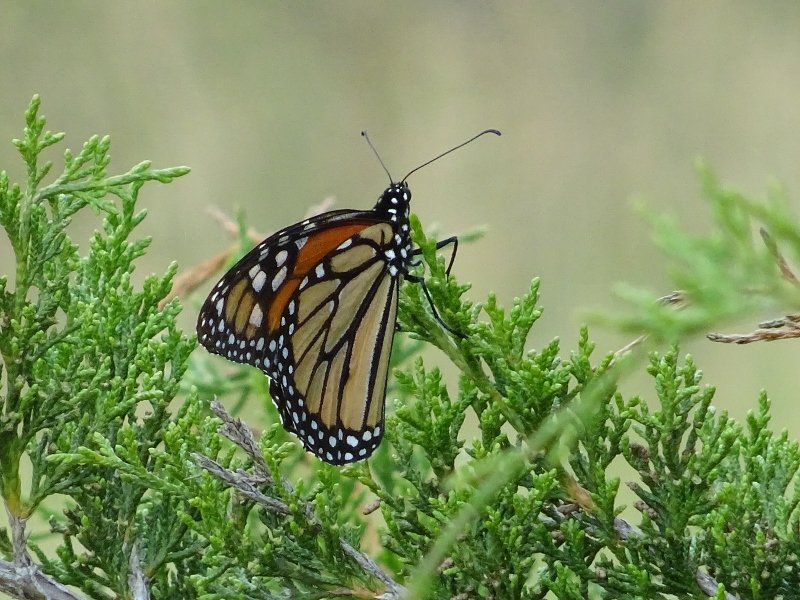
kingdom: Animalia
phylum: Arthropoda
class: Insecta
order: Lepidoptera
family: Nymphalidae
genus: Danaus
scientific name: Danaus plexippus
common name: Monarch
